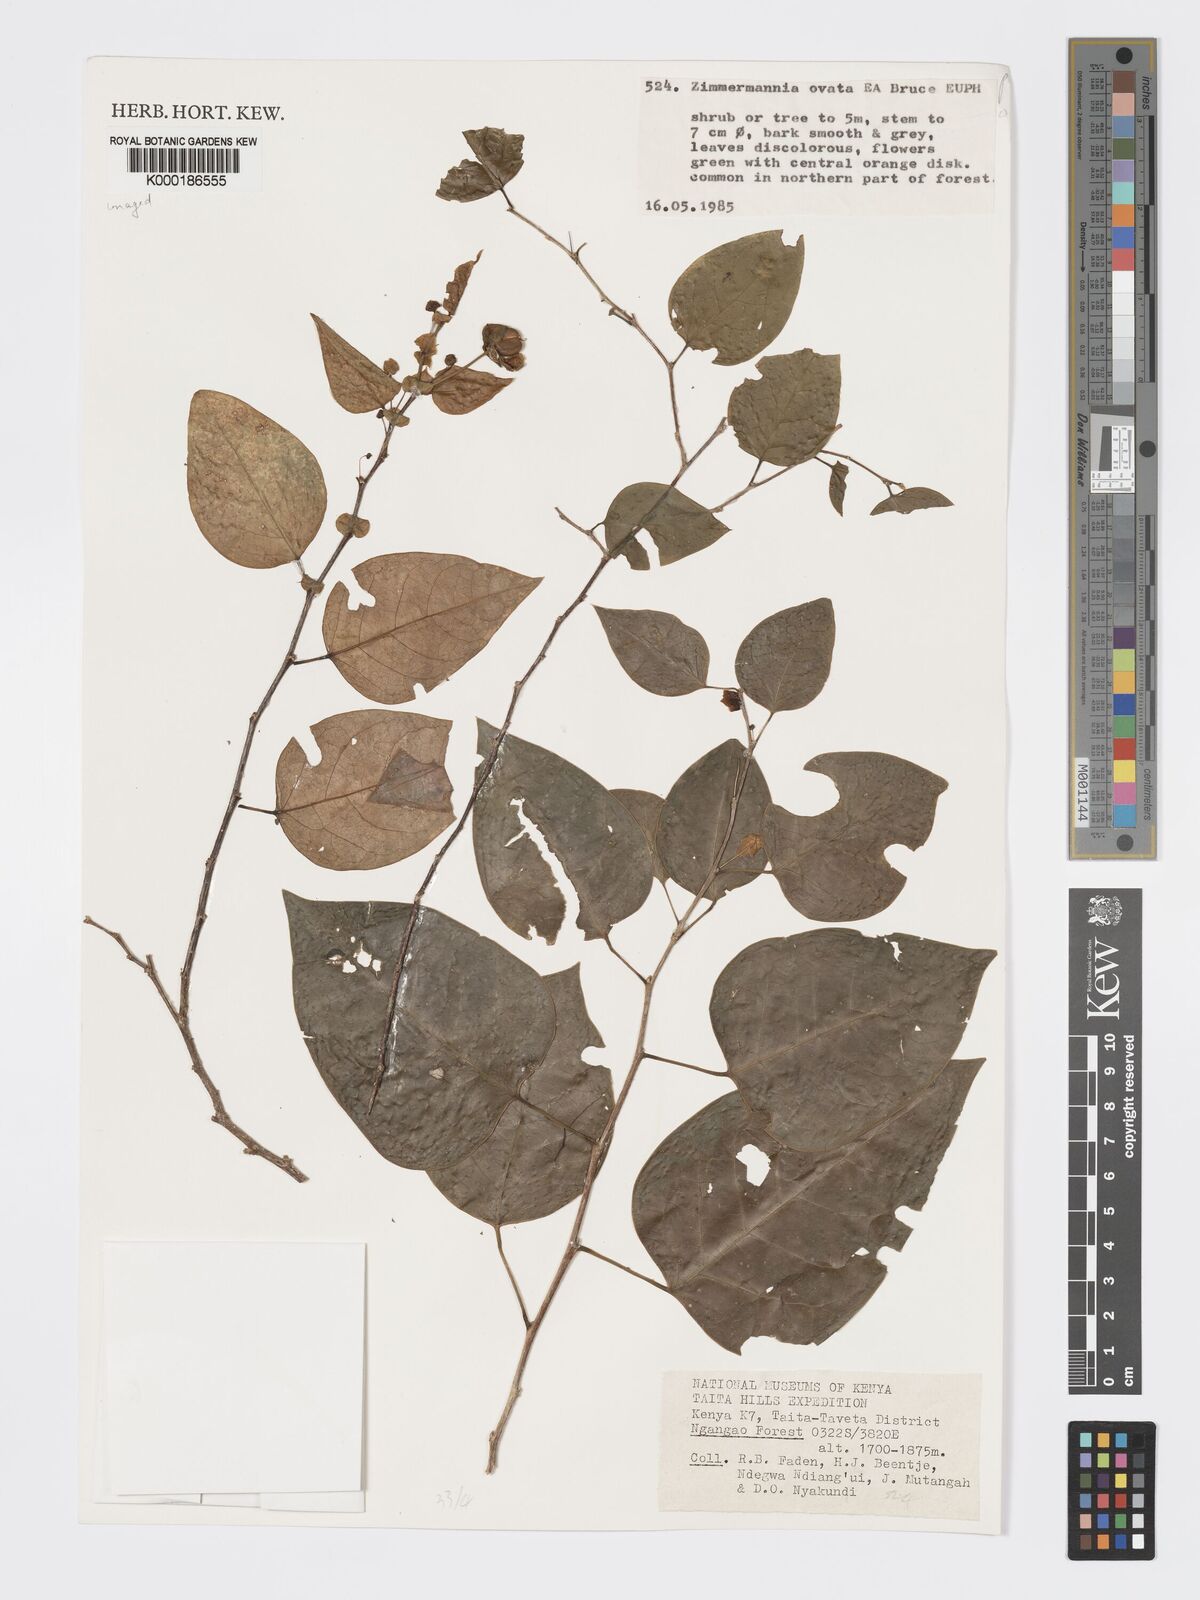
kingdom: Plantae
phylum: Tracheophyta
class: Magnoliopsida
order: Malpighiales
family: Phyllanthaceae
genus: Meineckia
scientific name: Meineckia ovata
